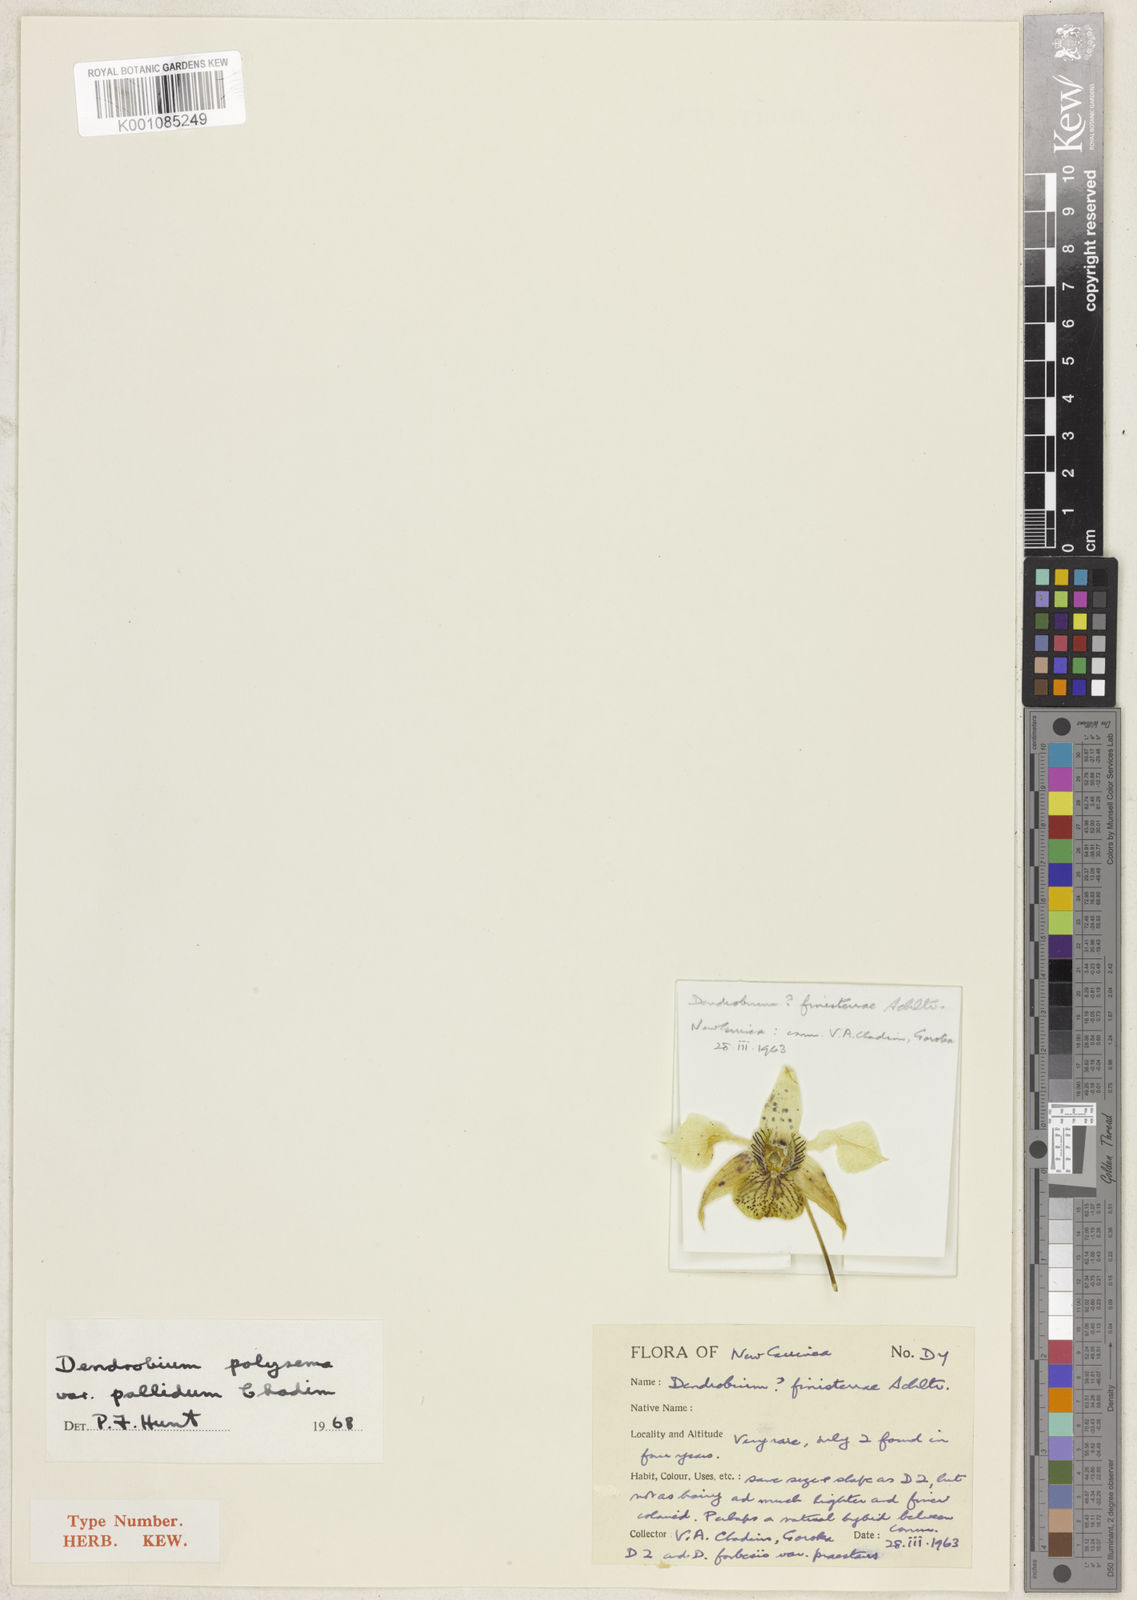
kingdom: Plantae
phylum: Tracheophyta
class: Liliopsida
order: Asparagales
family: Orchidaceae
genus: Dendrobium
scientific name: Dendrobium polysema
